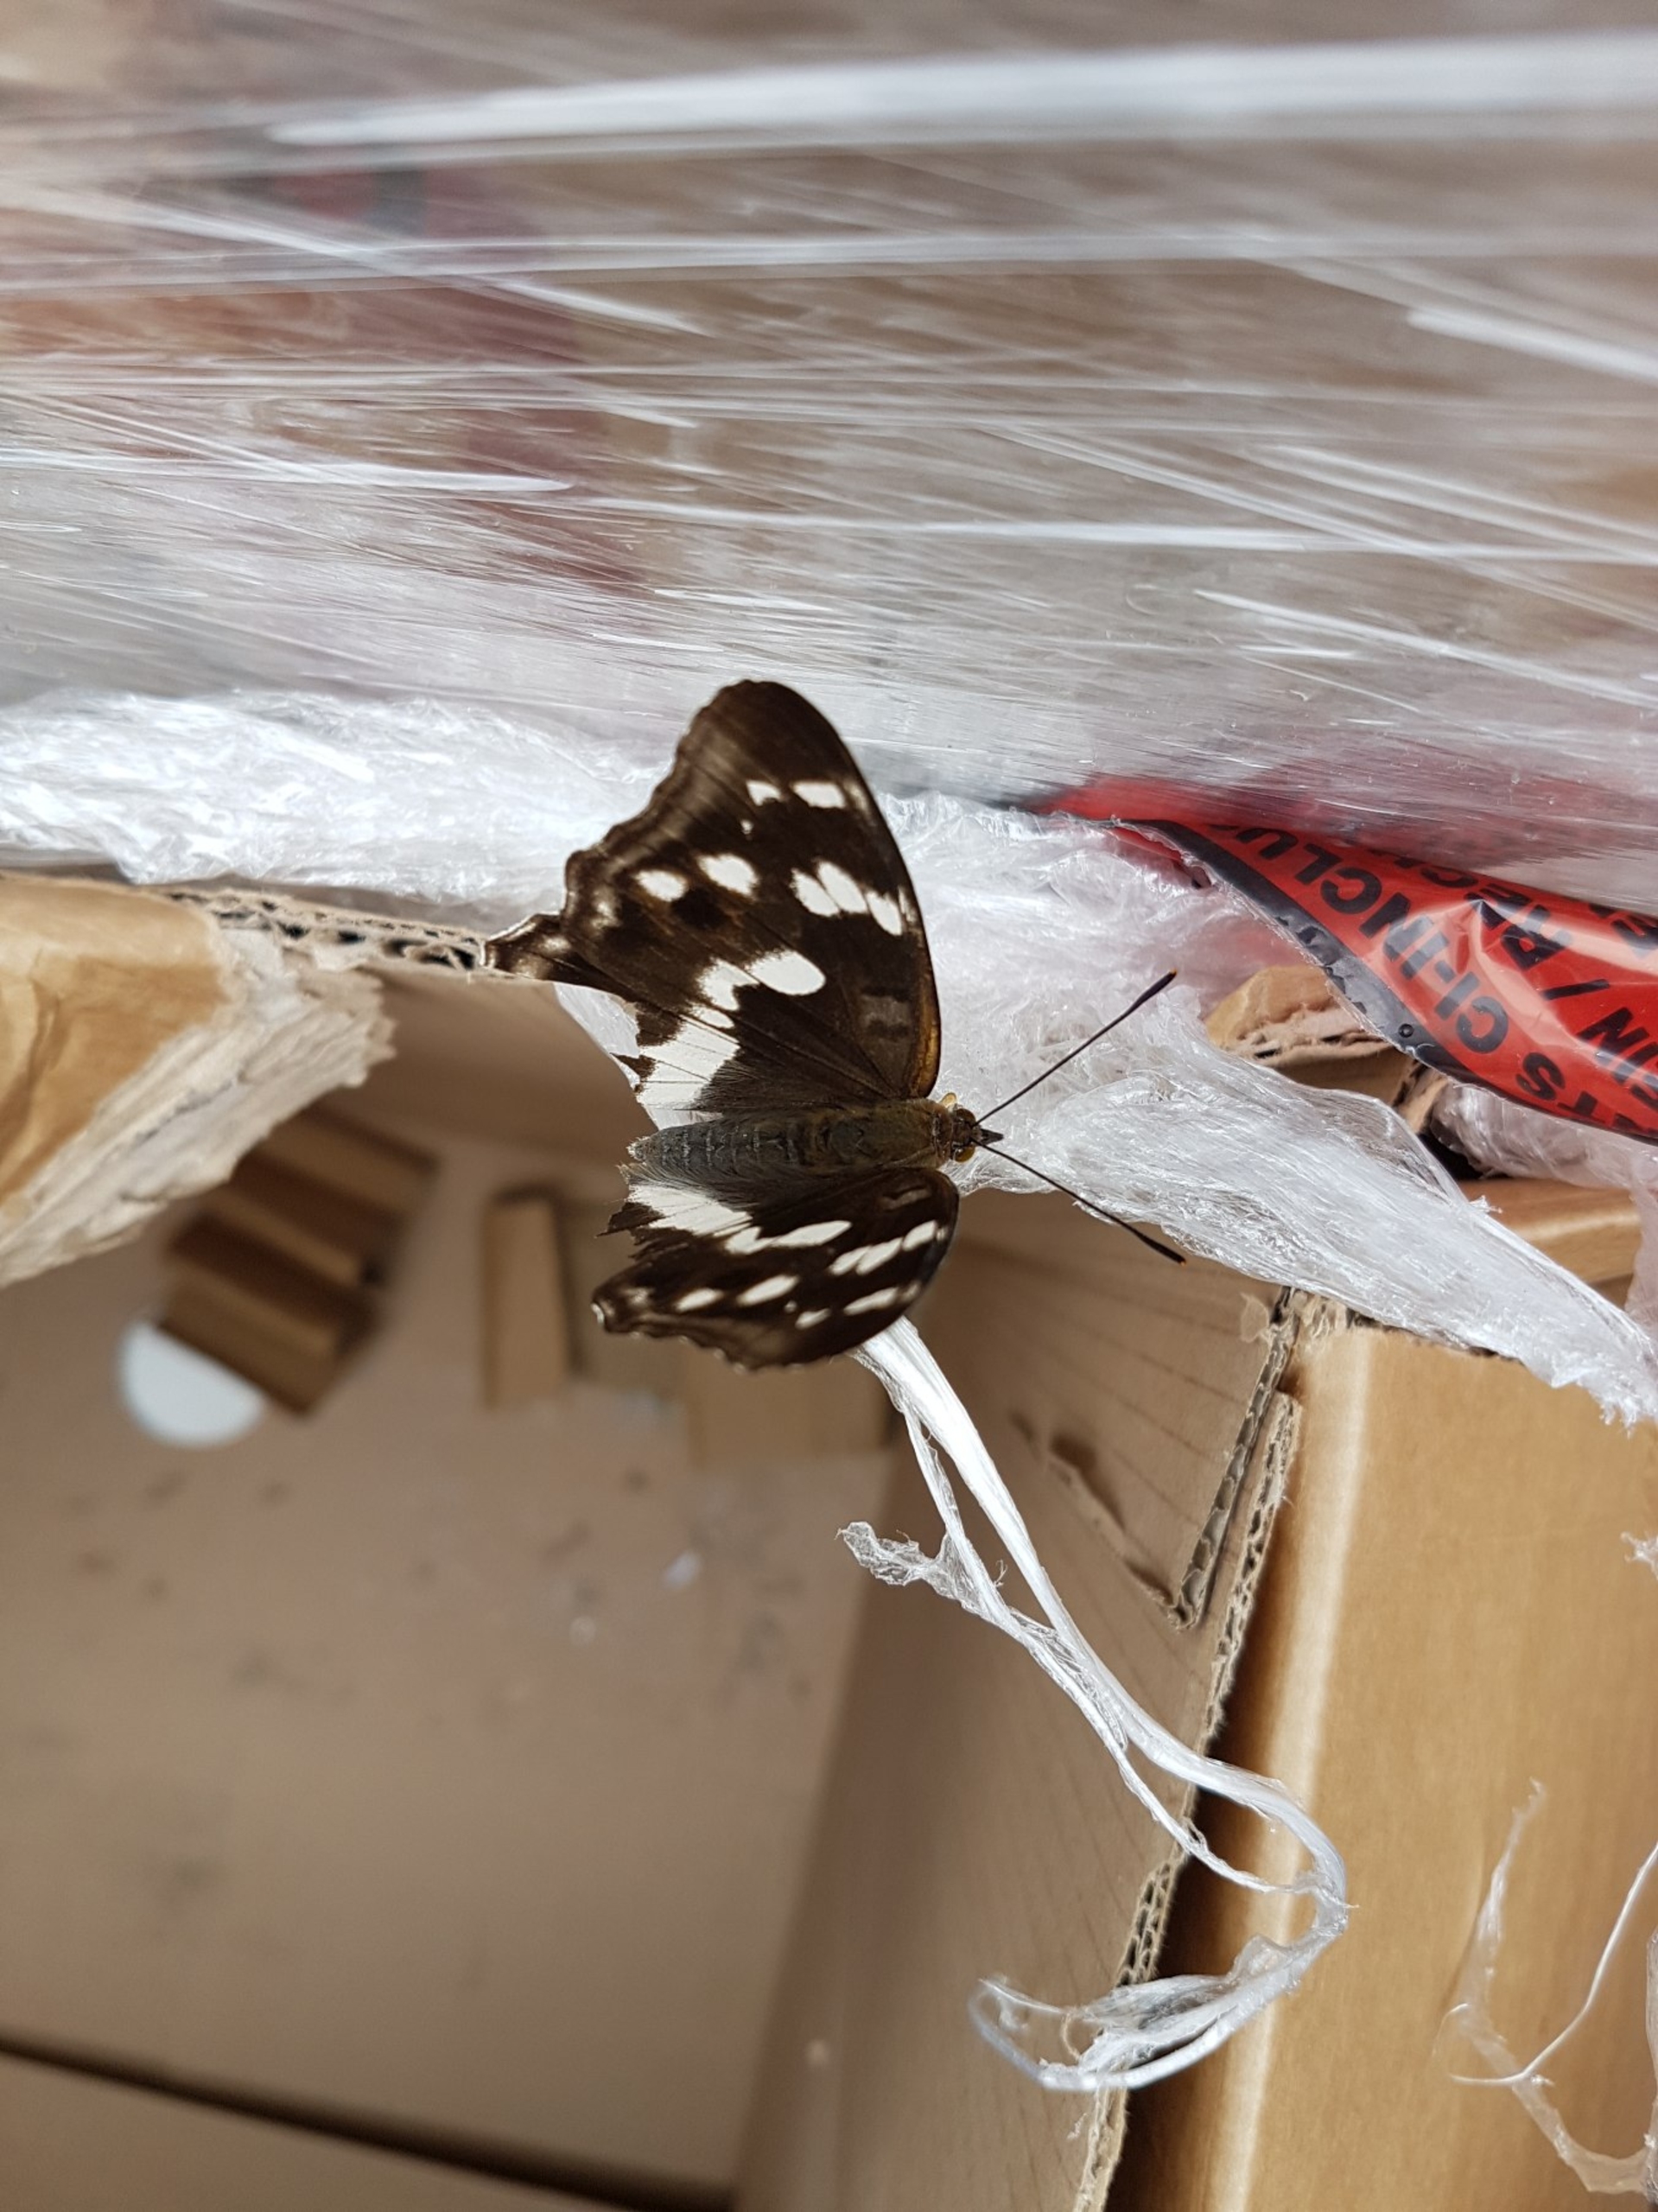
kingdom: Animalia
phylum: Arthropoda
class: Insecta
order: Lepidoptera
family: Nymphalidae
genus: Apatura
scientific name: Apatura iris
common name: Iris
